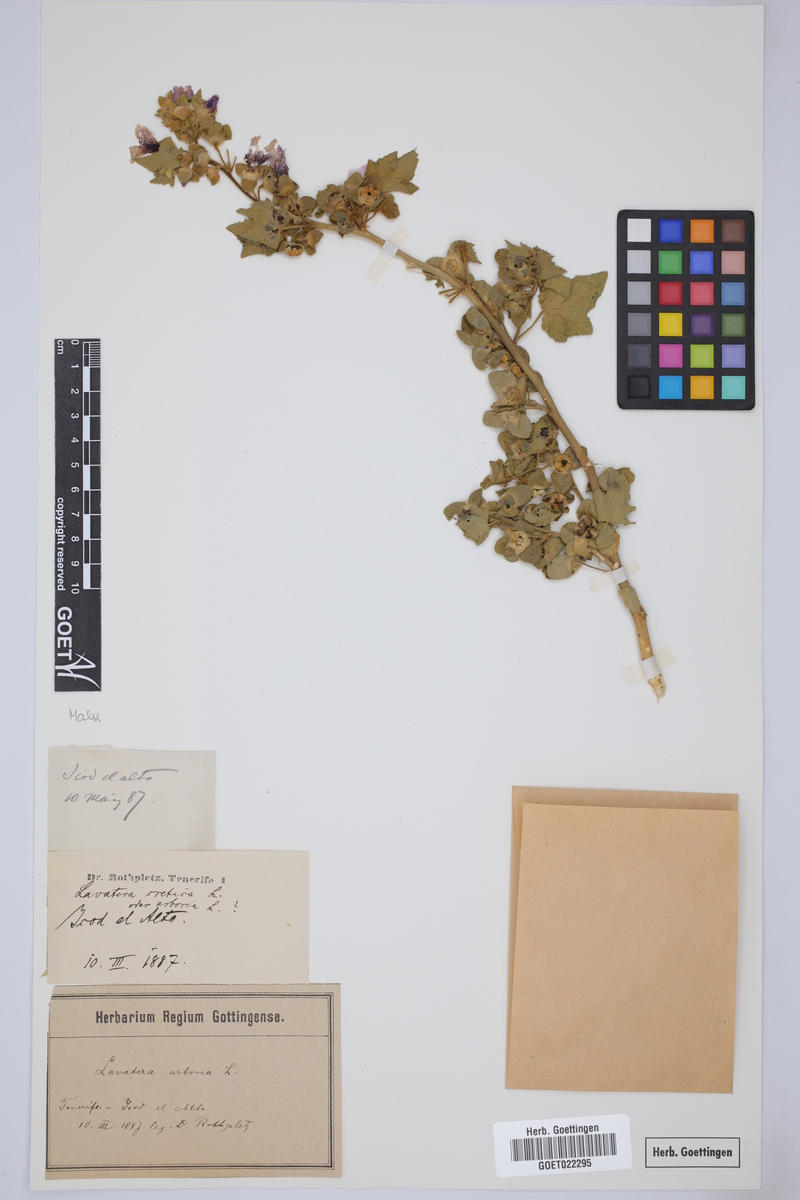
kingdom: Plantae
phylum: Tracheophyta
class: Magnoliopsida
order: Malvales
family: Malvaceae
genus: Malva
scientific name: Malva arborea
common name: Tree mallow
